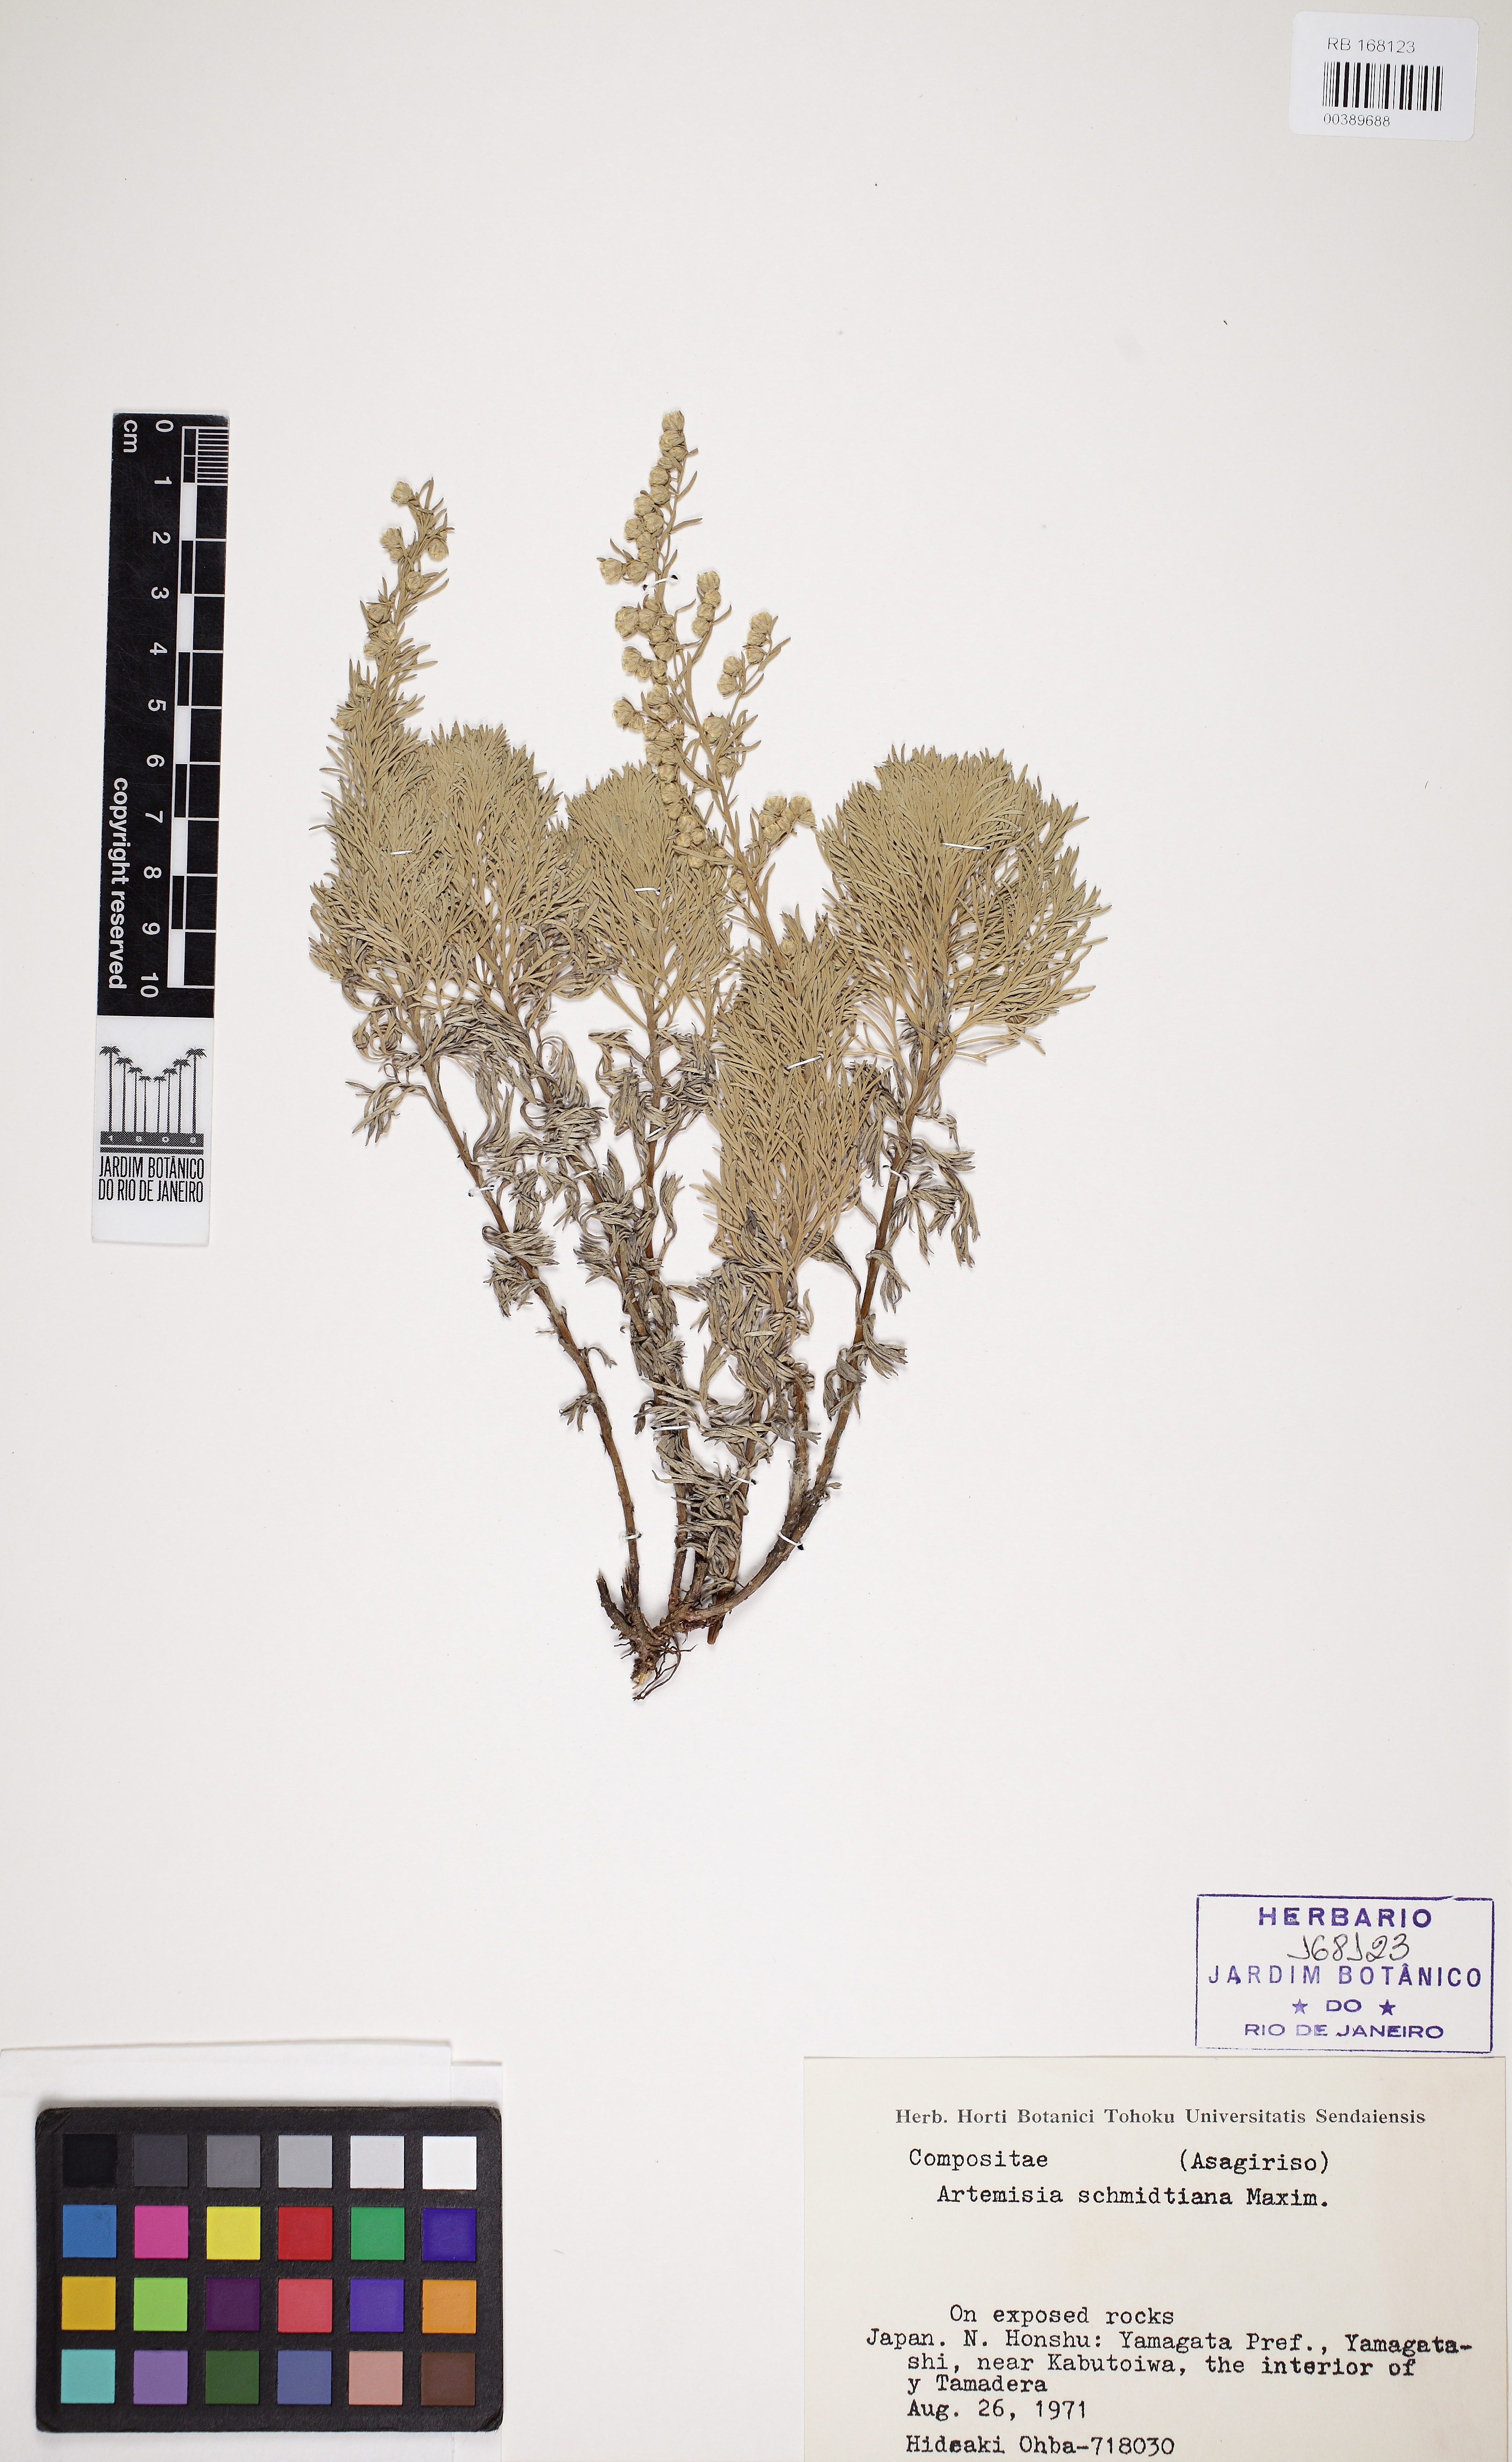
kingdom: Plantae
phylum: Tracheophyta
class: Magnoliopsida
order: Asterales
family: Asteraceae
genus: Artemisia
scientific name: Artemisia schmidtiana
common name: Angel's-hair
